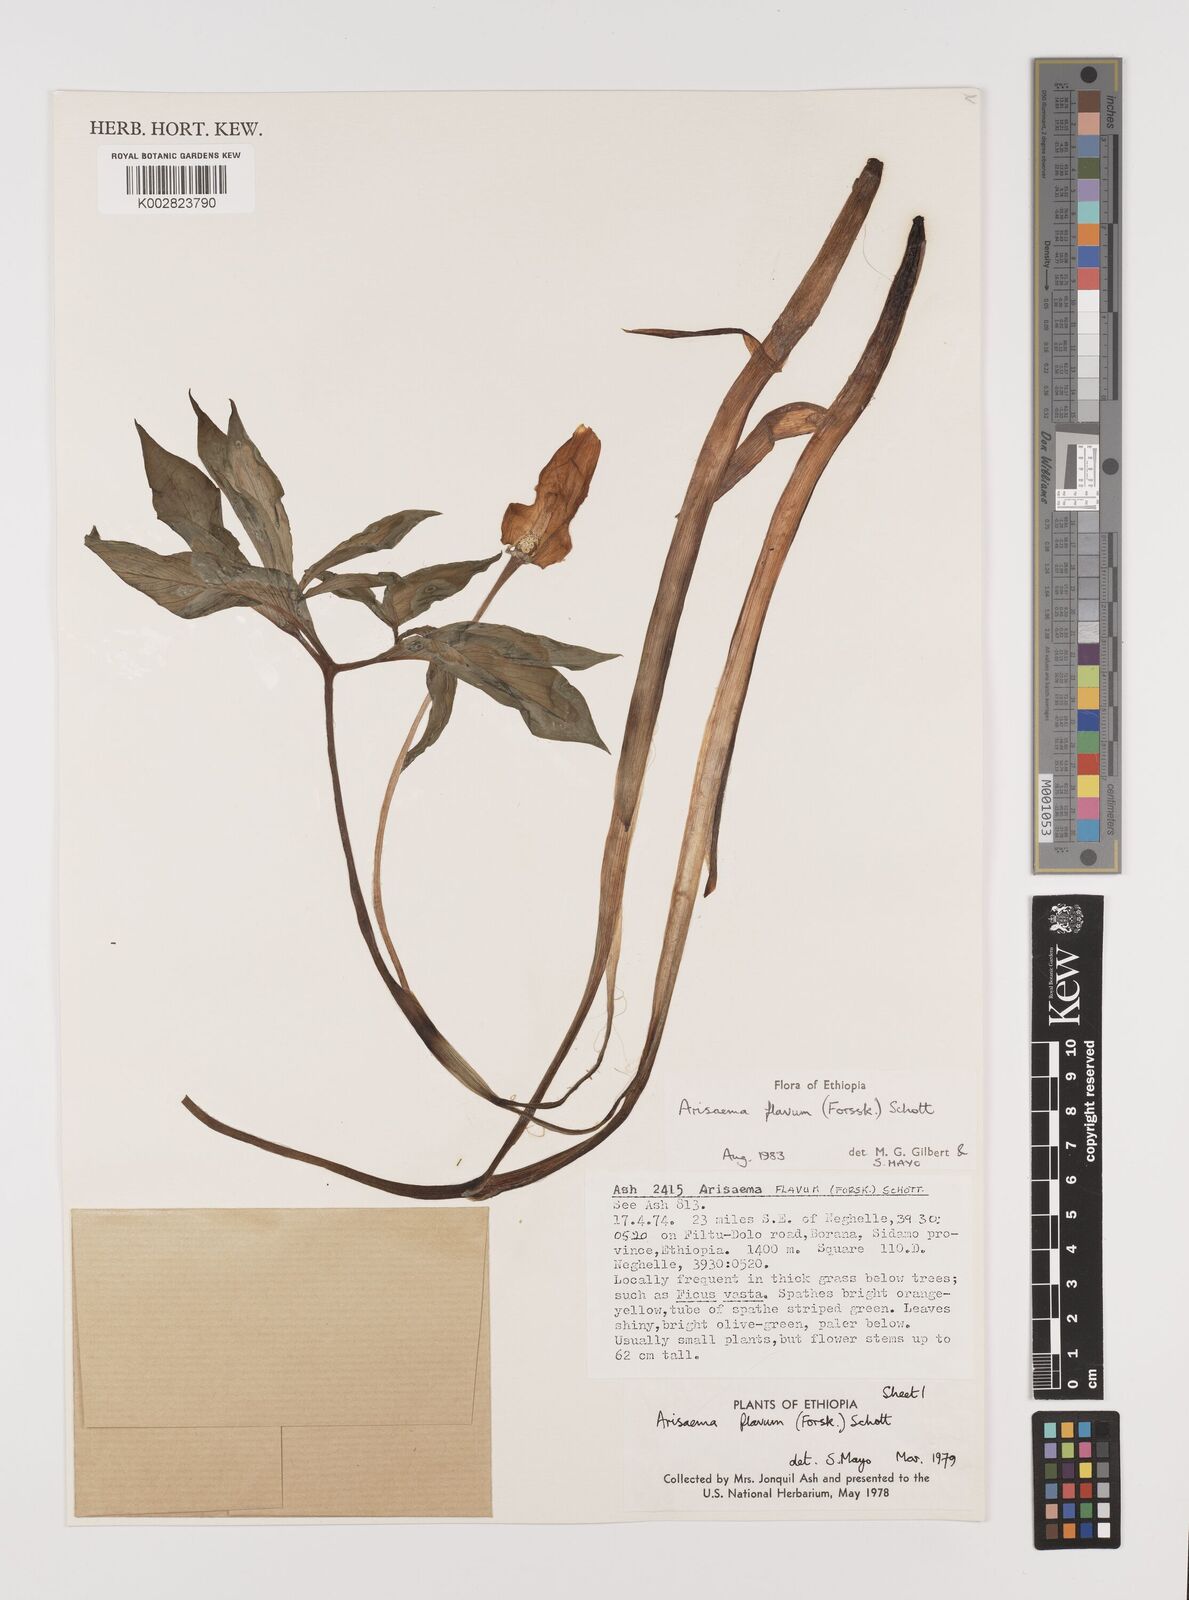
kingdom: Plantae
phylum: Tracheophyta
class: Liliopsida
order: Alismatales
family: Araceae
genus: Arisaema
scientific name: Arisaema flavum
